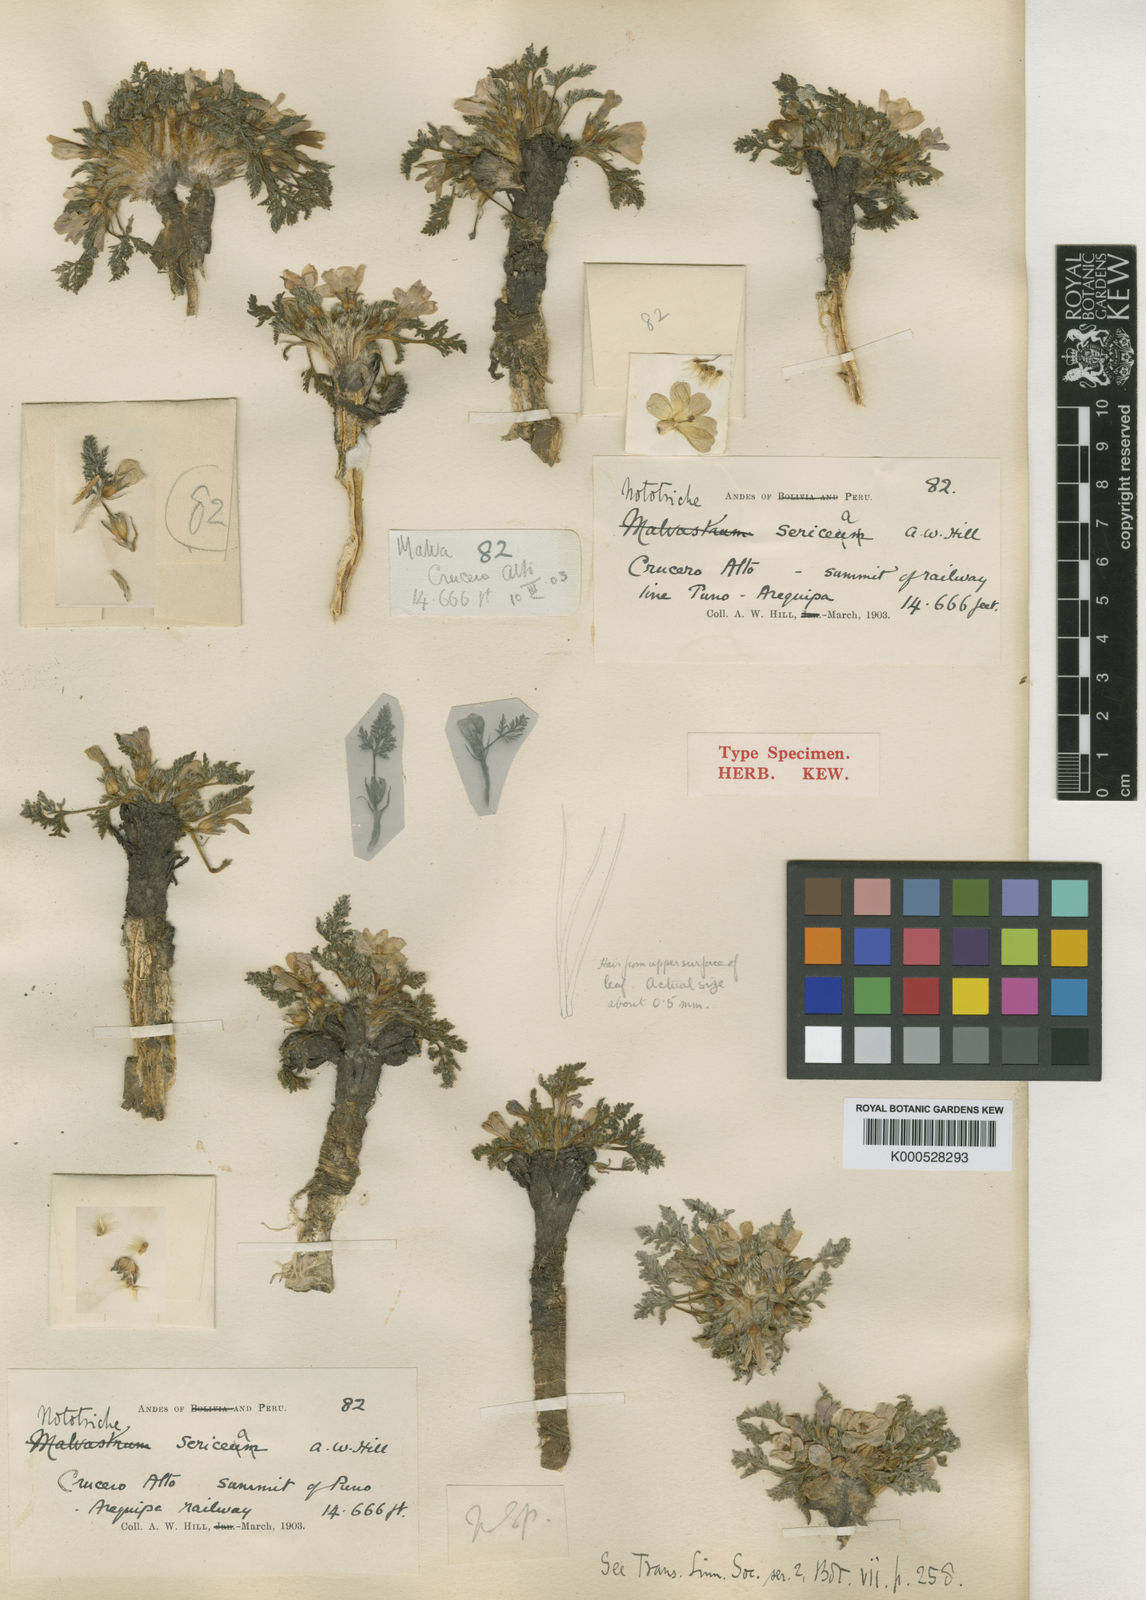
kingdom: Plantae
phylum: Tracheophyta
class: Magnoliopsida
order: Malvales
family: Malvaceae
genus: Nototriche
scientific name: Nototriche argentea
